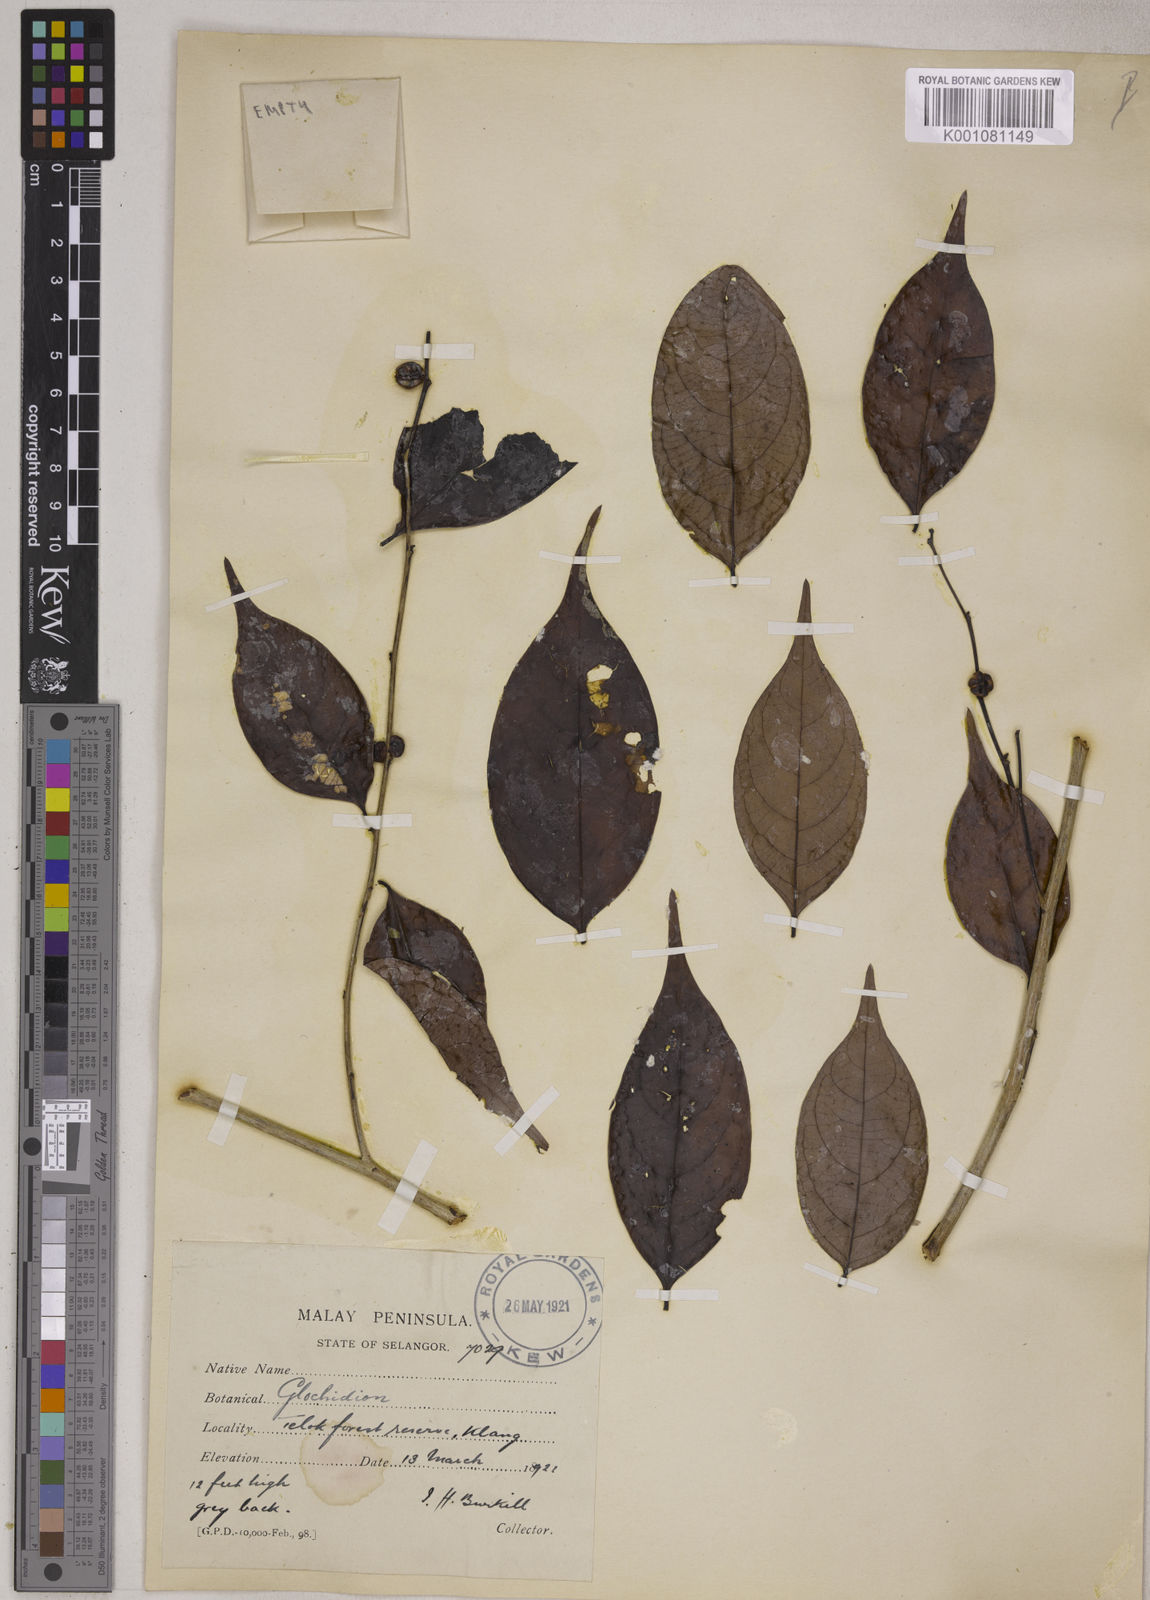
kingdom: Plantae
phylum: Tracheophyta
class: Magnoliopsida
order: Malpighiales
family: Phyllanthaceae
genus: Glochidion
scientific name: Glochidion
